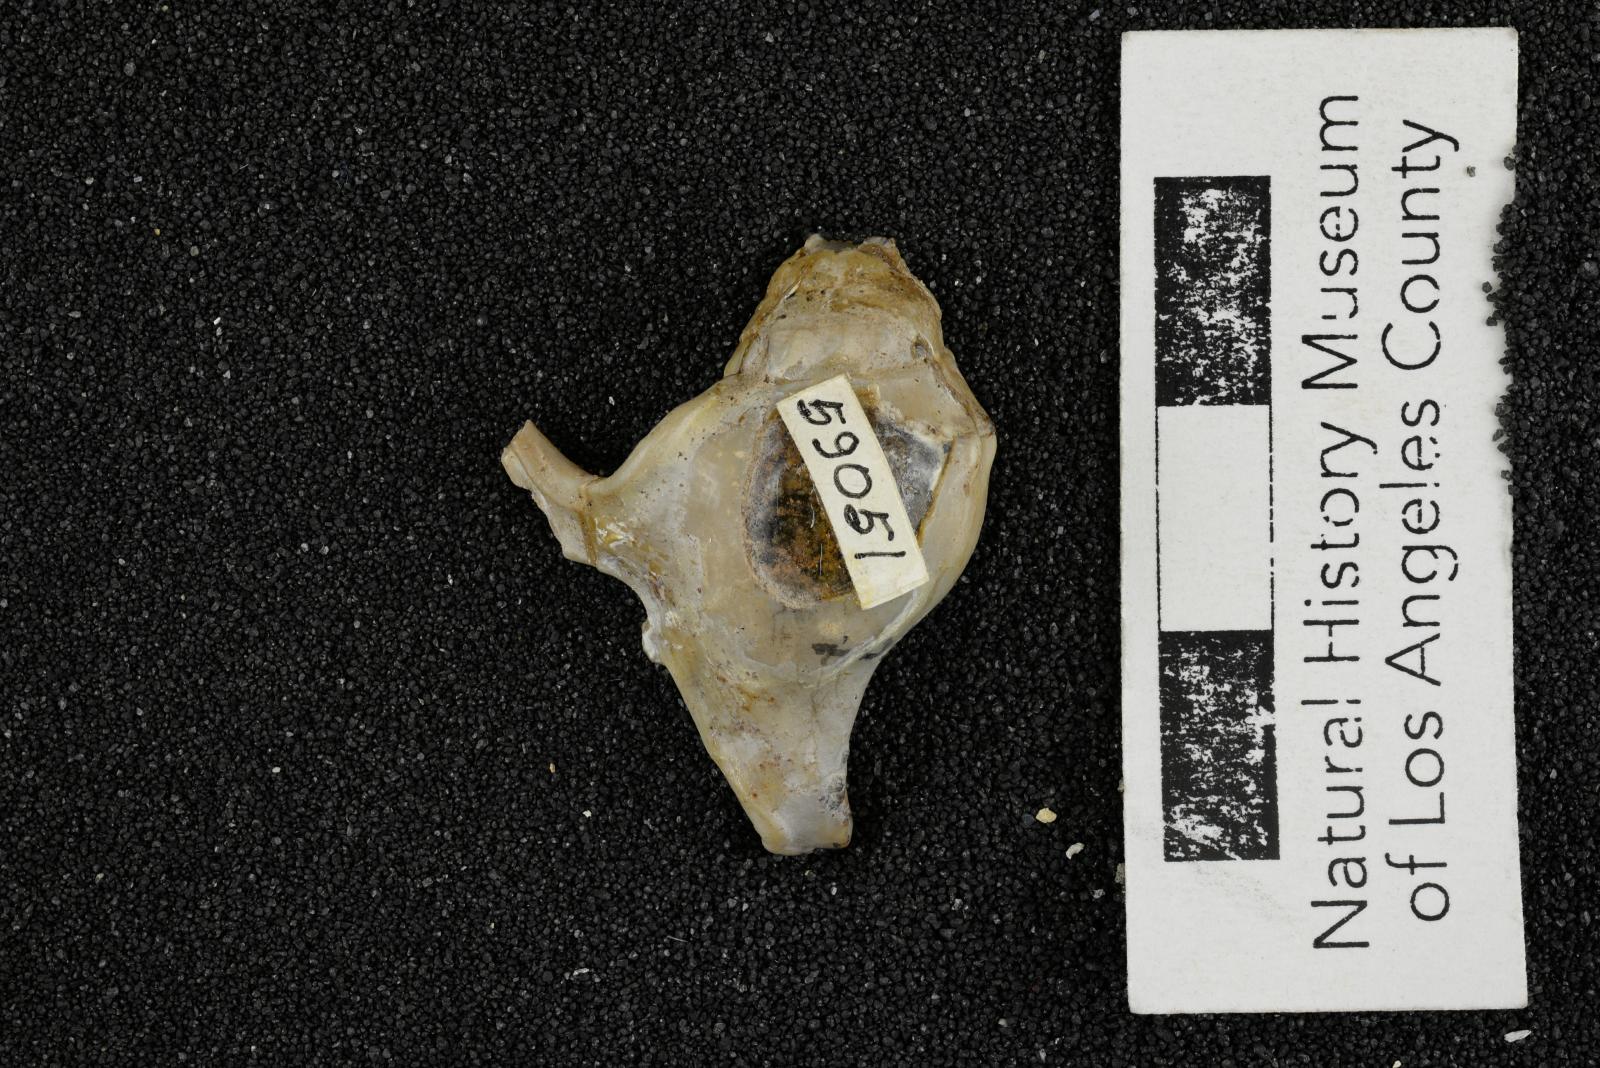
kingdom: Animalia
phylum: Mollusca
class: Gastropoda
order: Littorinimorpha
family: Aporrhaidae
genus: Pyktes
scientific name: Pyktes aspris
